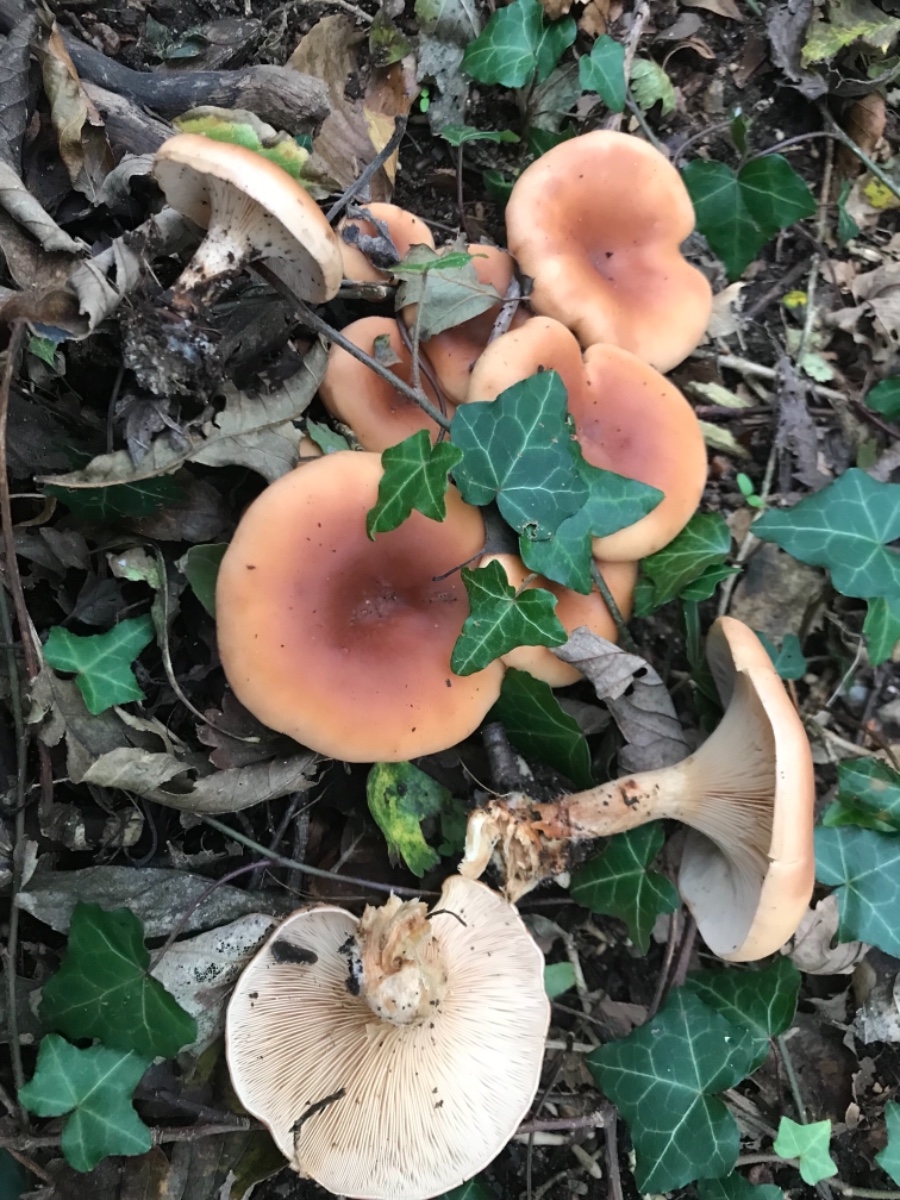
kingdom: Fungi
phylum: Basidiomycota
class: Agaricomycetes
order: Agaricales
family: Tricholomataceae
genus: Paralepista
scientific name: Paralepista flaccida
